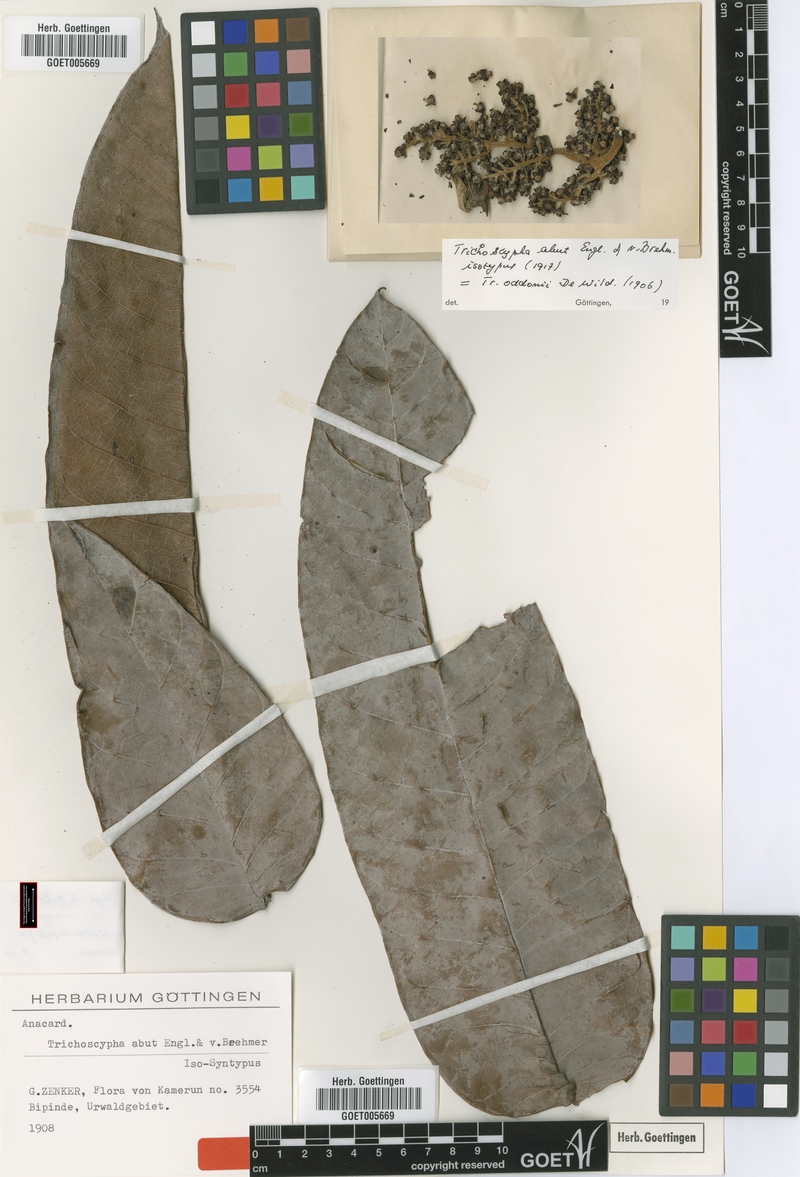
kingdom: Plantae
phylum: Tracheophyta
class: Magnoliopsida
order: Sapindales
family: Anacardiaceae
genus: Trichoscypha
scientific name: Trichoscypha oddonii
